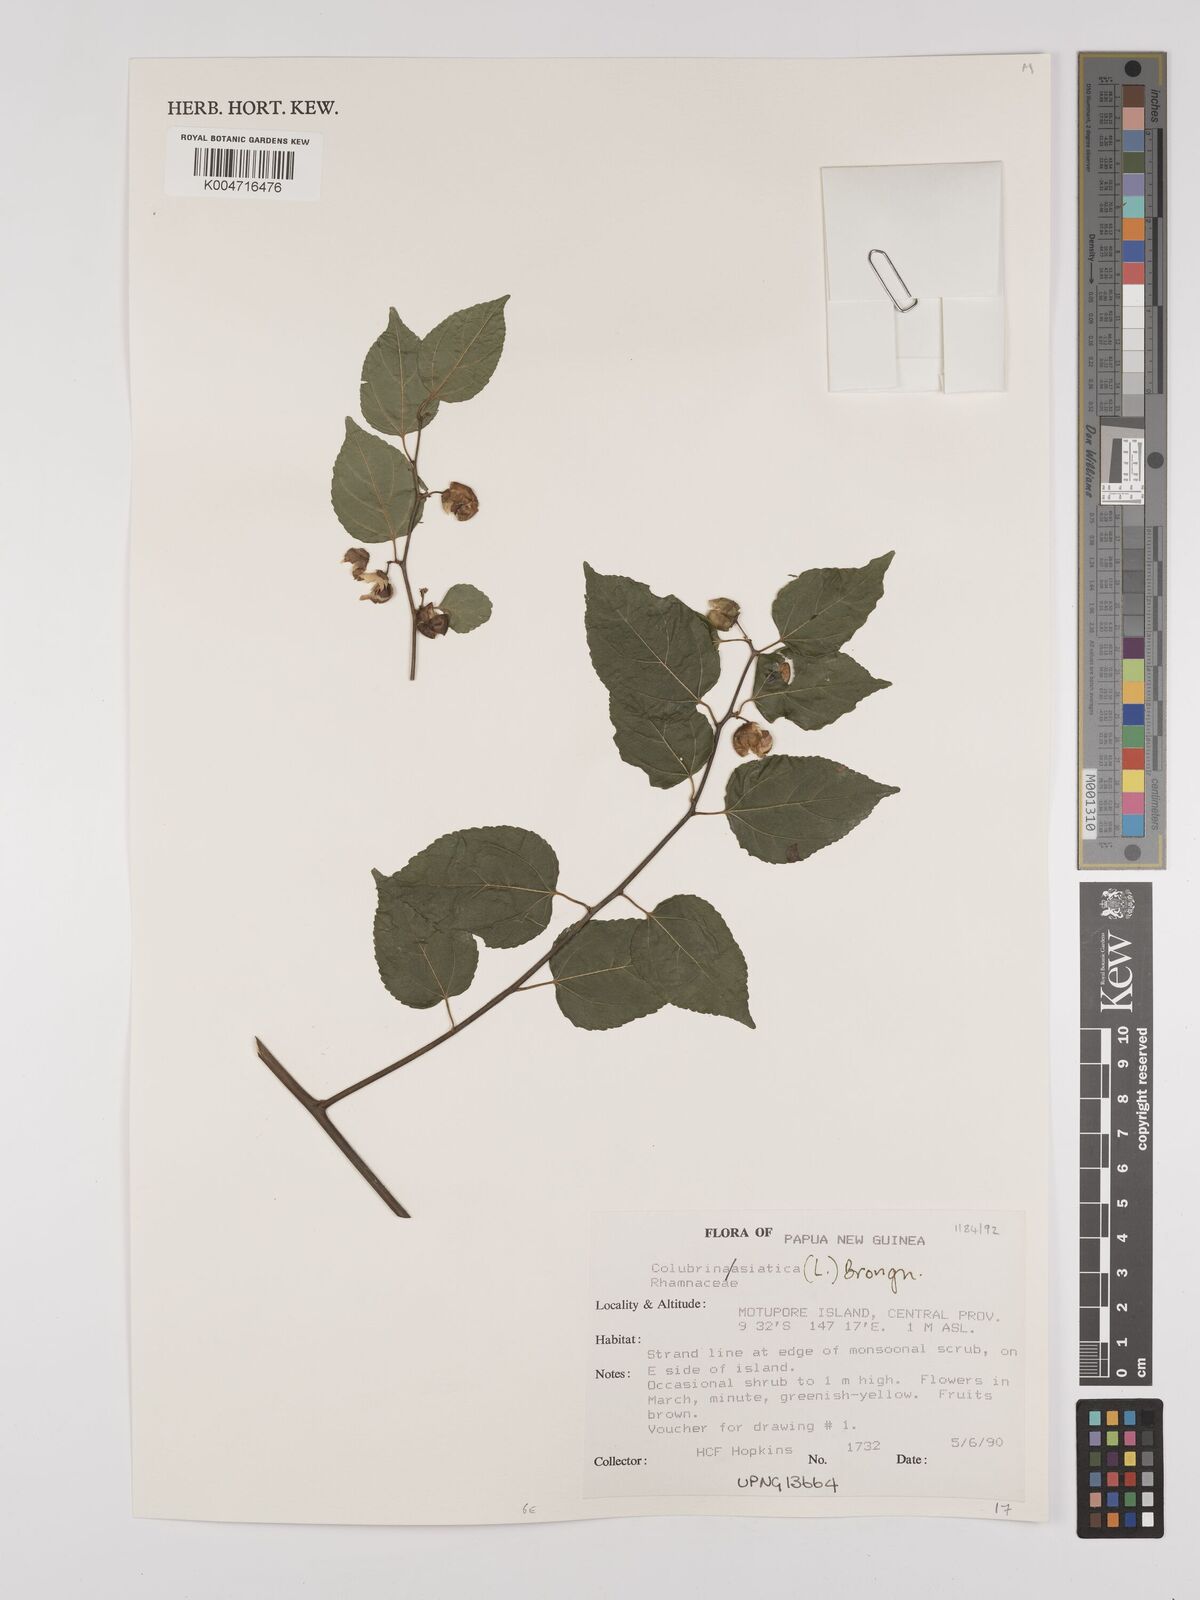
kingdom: Plantae
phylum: Tracheophyta
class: Magnoliopsida
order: Rosales
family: Rhamnaceae
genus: Colubrina
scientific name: Colubrina asiatica
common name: Asian nakedwood
